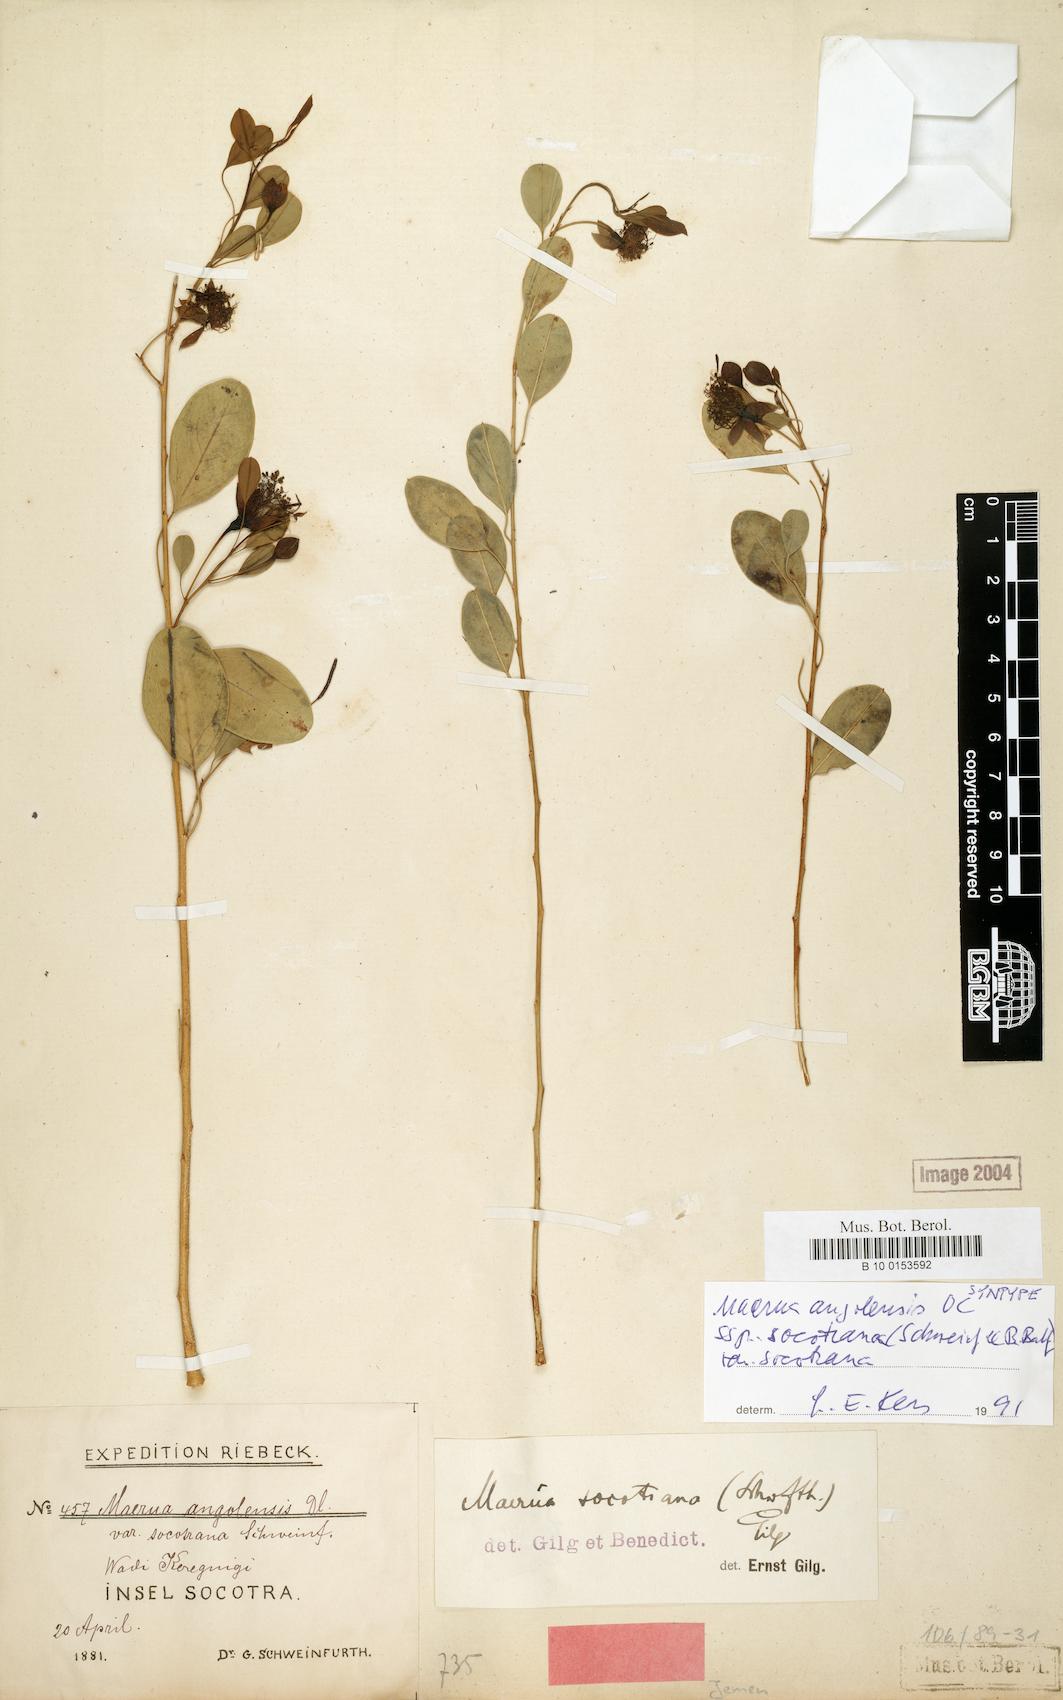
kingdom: Plantae
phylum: Tracheophyta
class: Magnoliopsida
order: Brassicales
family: Capparaceae
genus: Maerua
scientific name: Maerua angolensis
